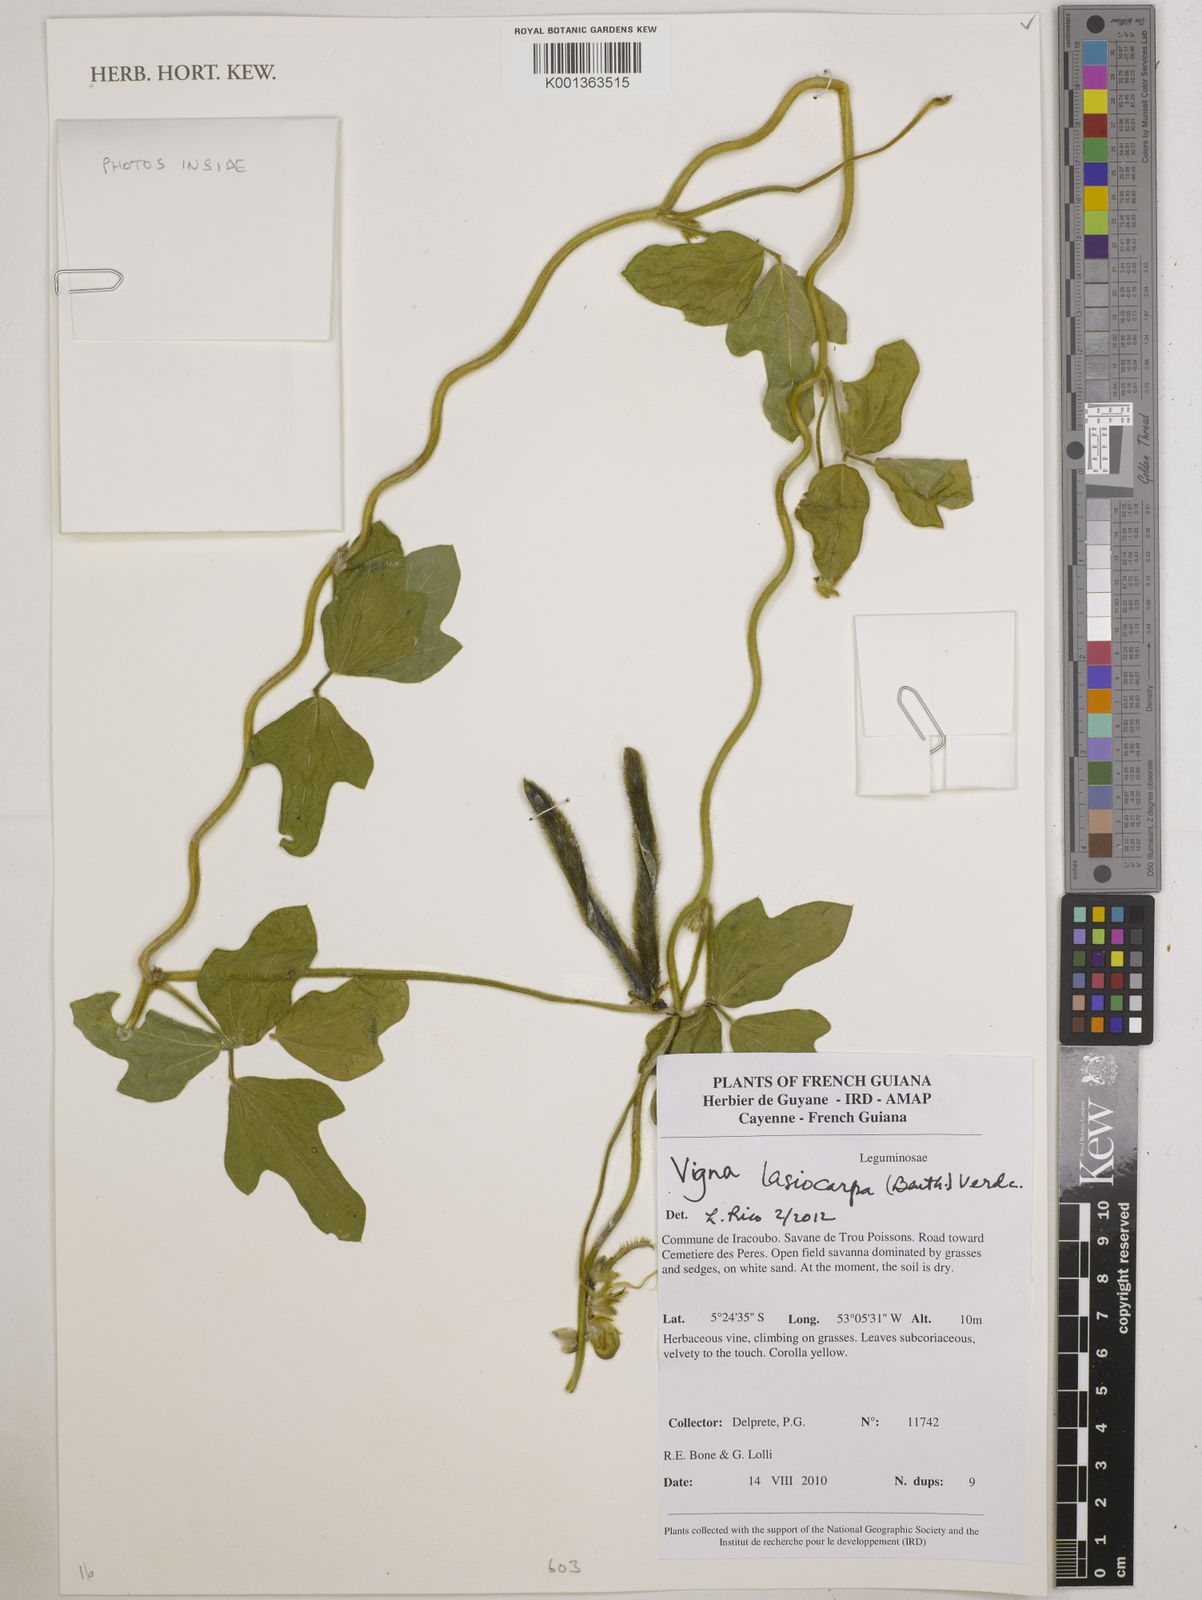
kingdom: Plantae
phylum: Tracheophyta
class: Magnoliopsida
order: Fabales
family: Fabaceae
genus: Vigna
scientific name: Vigna lasiocarpa
